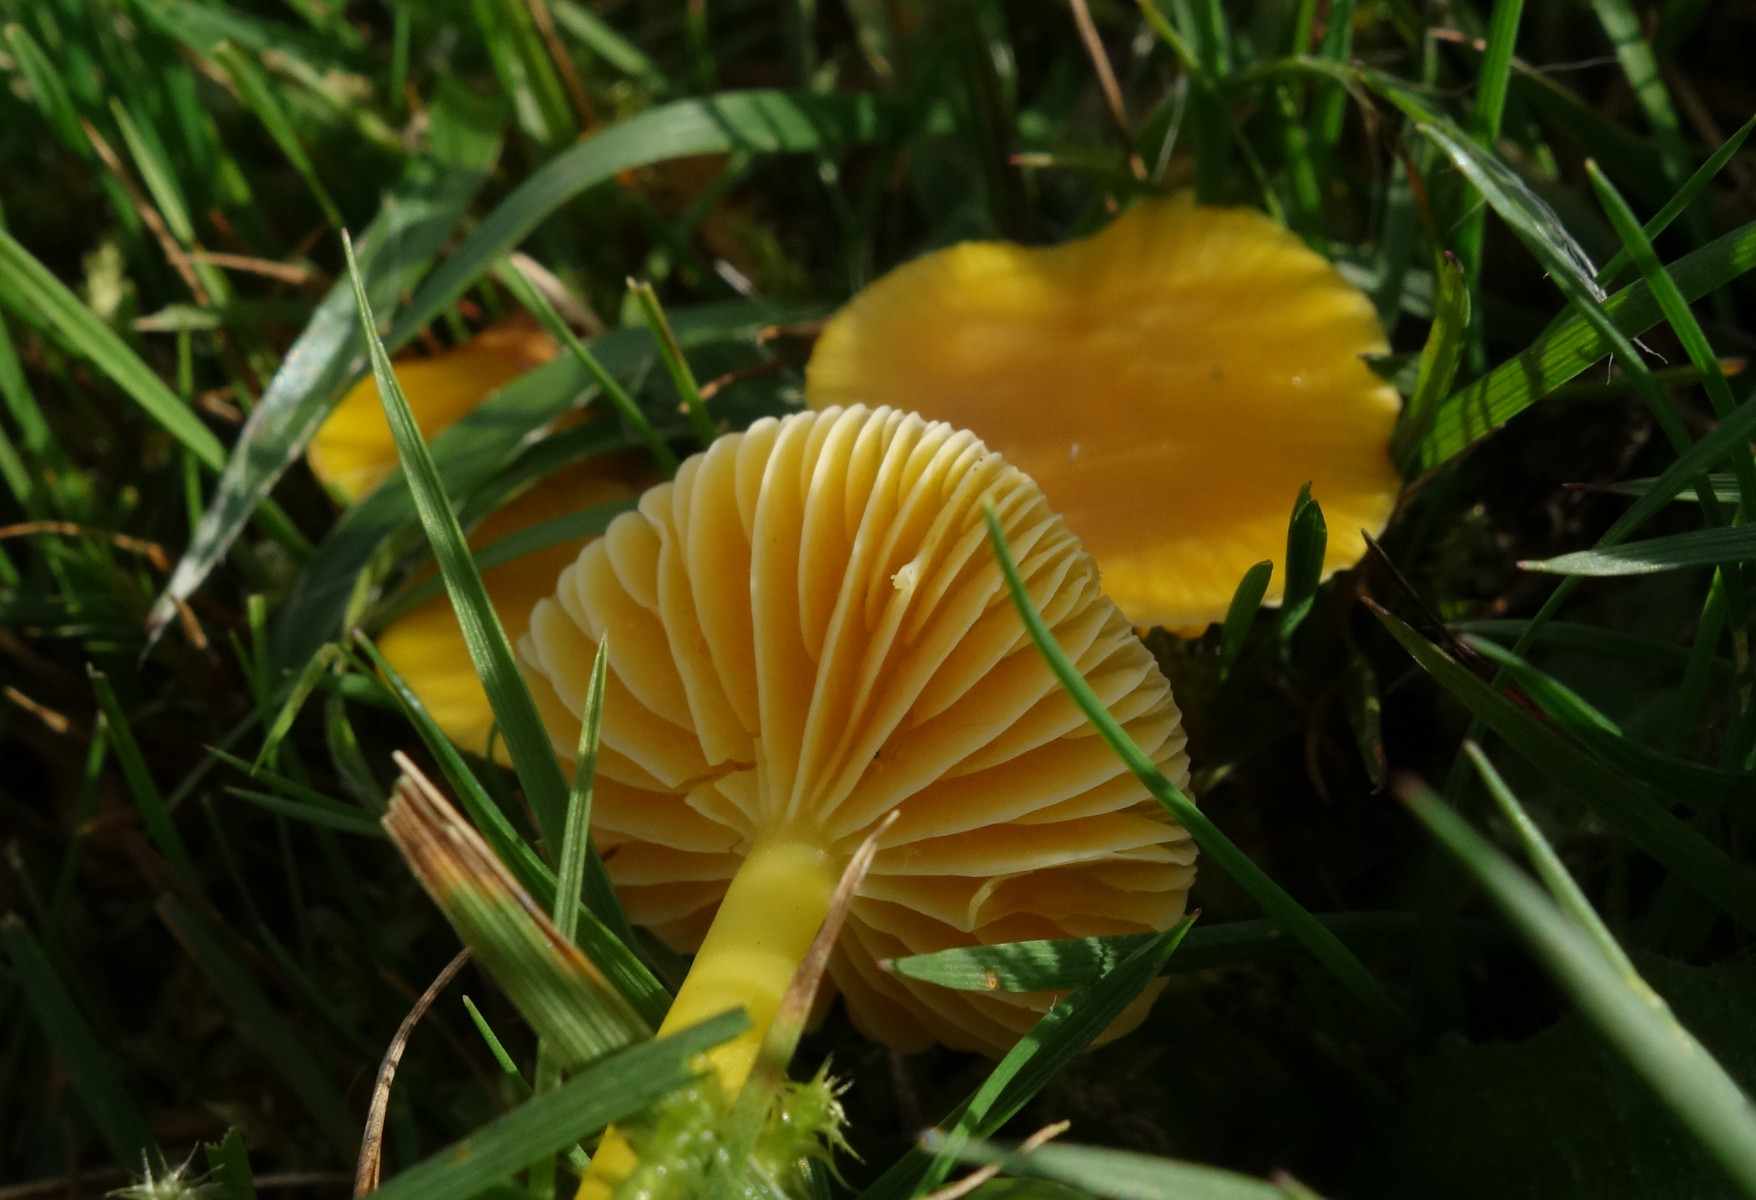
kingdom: Fungi
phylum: Basidiomycota
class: Agaricomycetes
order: Agaricales
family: Hygrophoraceae
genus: Hygrocybe
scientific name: Hygrocybe ceracea
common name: voksgul vokshat
